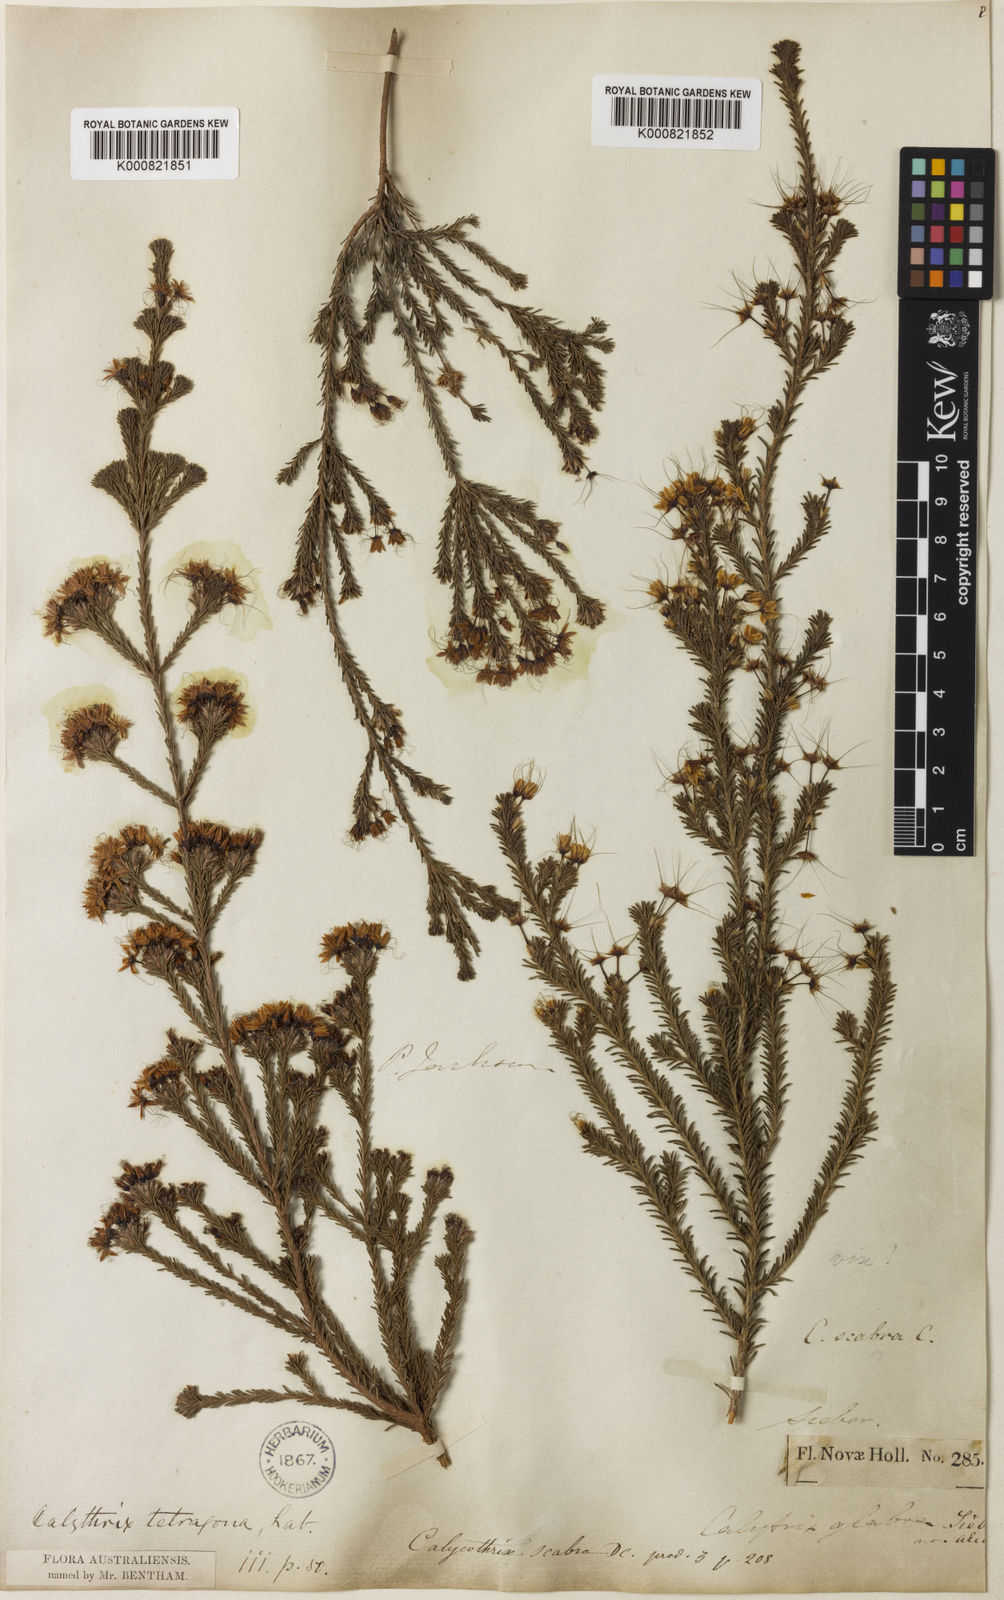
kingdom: Plantae
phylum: Tracheophyta
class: Magnoliopsida
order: Myrtales
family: Myrtaceae
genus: Calytrix
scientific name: Calytrix tetragona
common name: Common fringe myrtle
